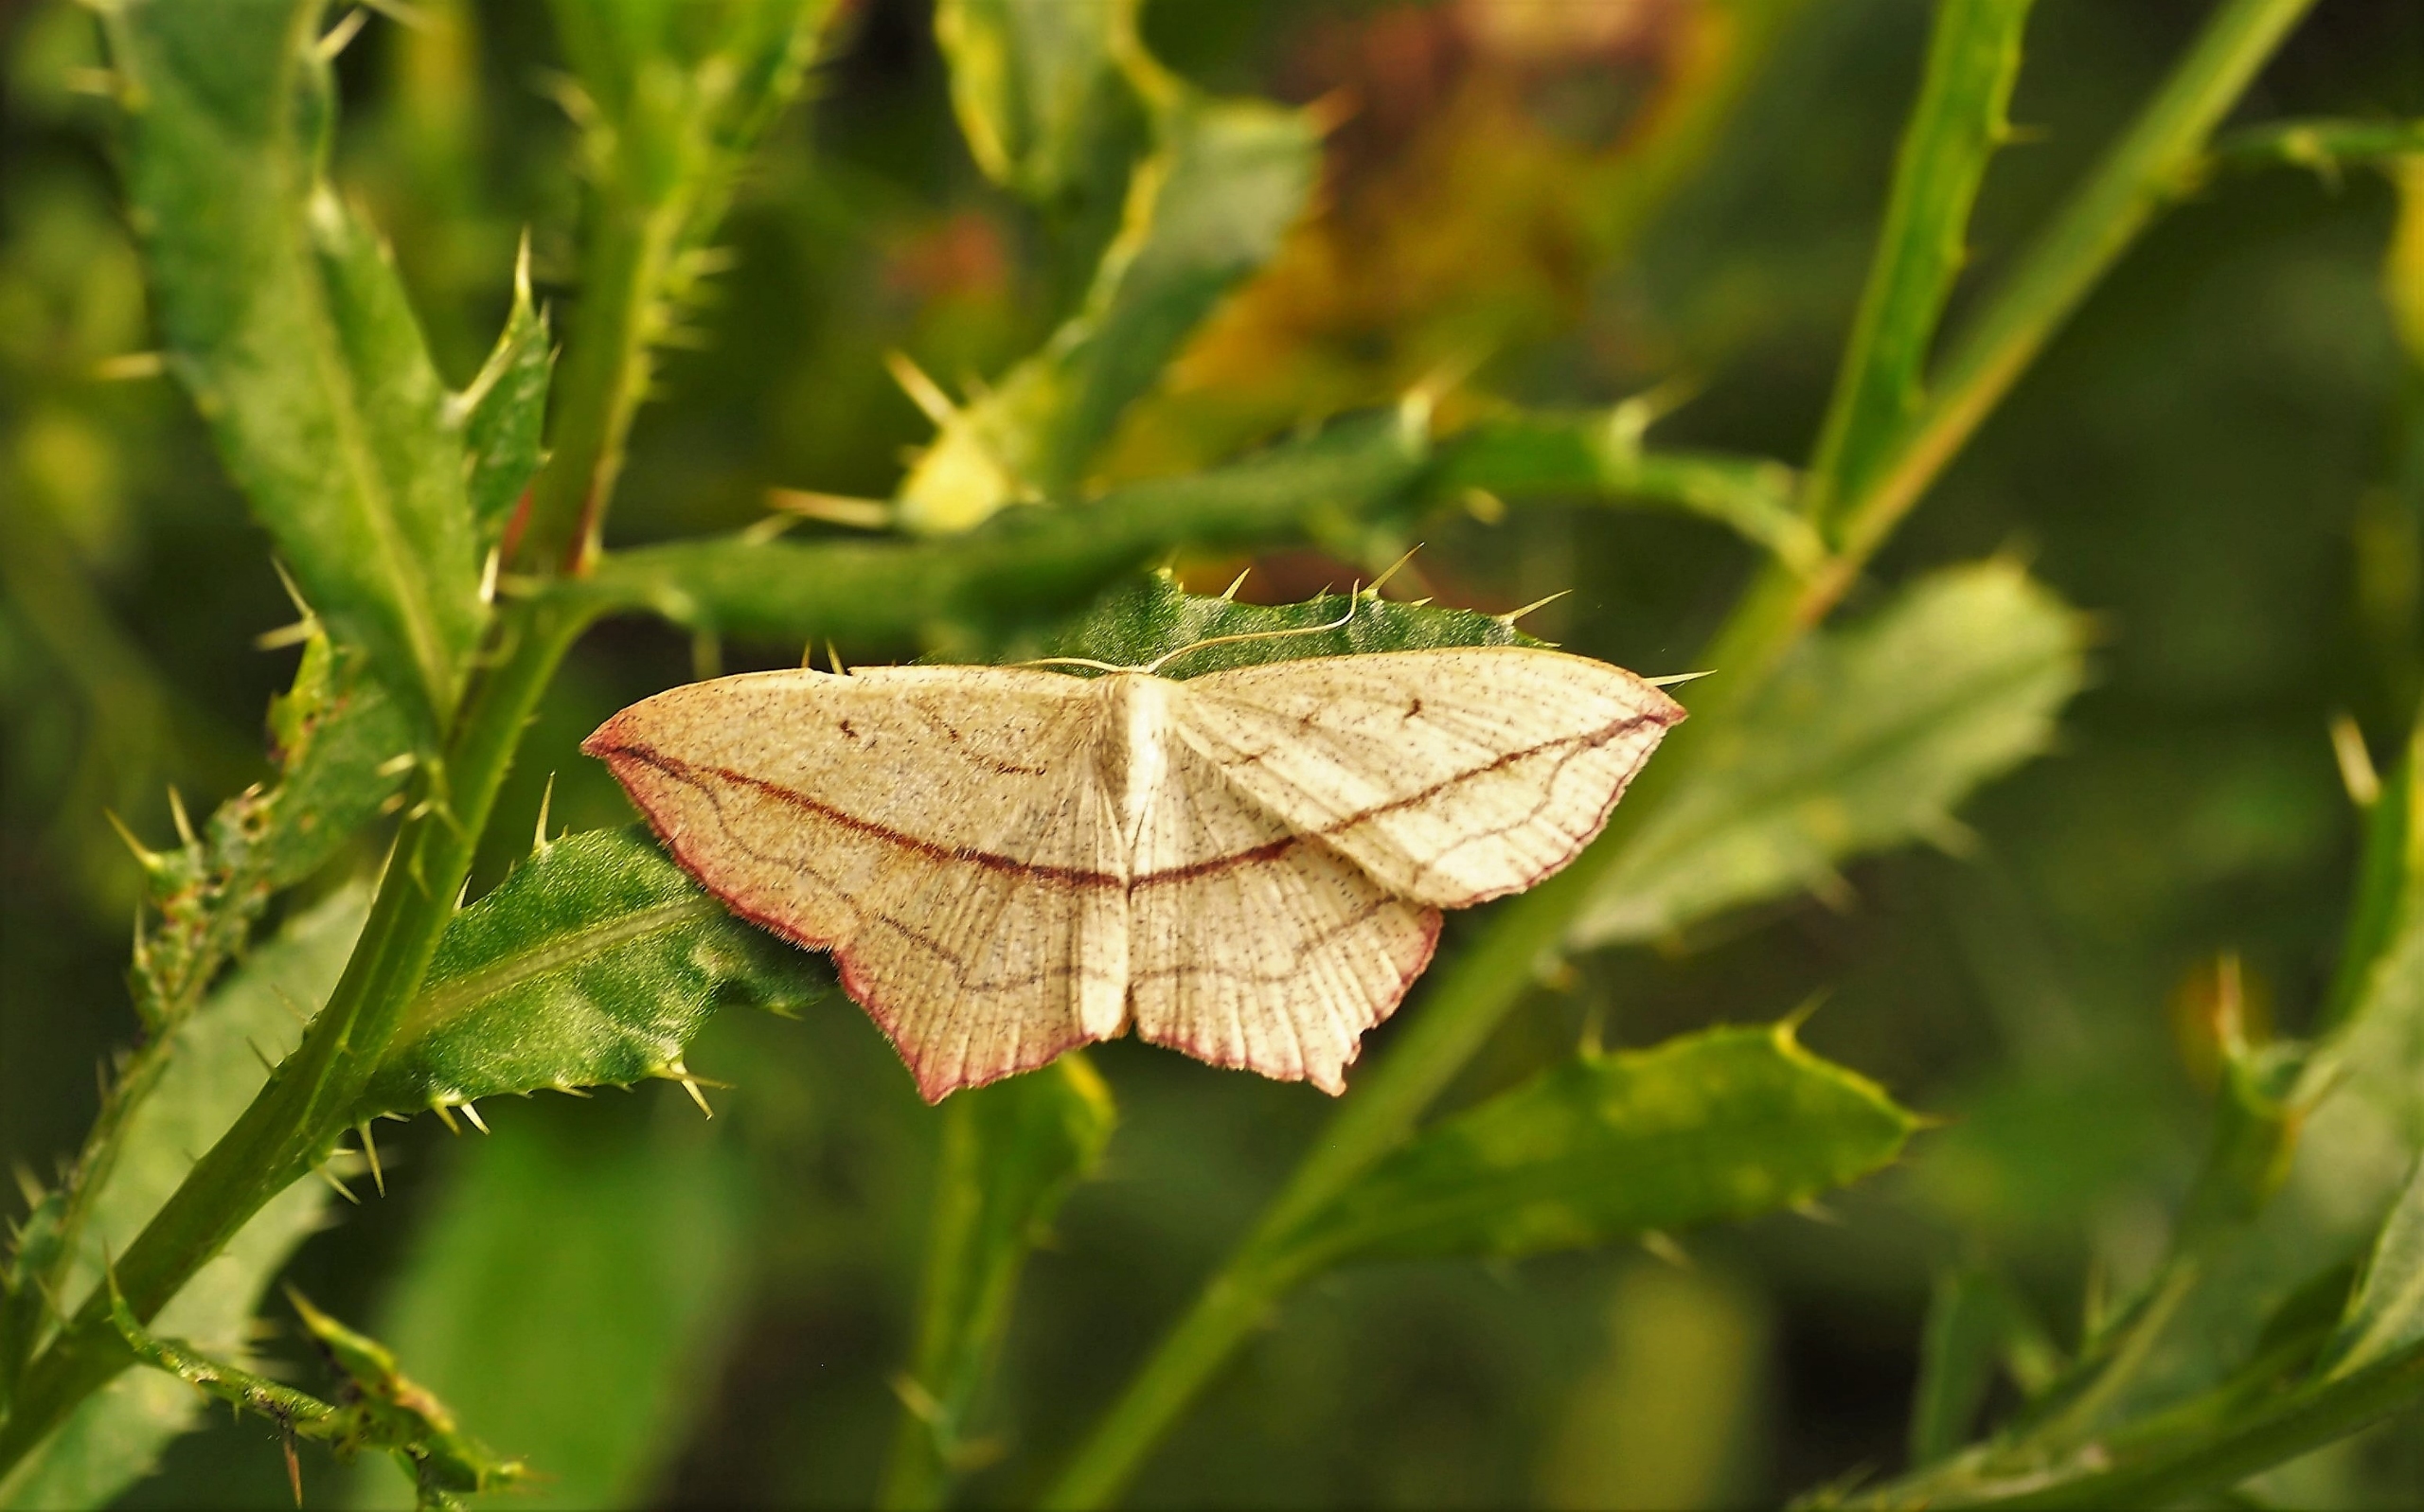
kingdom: Animalia
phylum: Arthropoda
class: Insecta
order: Lepidoptera
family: Geometridae
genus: Timandra
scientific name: Timandra comae
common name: Gul syremåler
